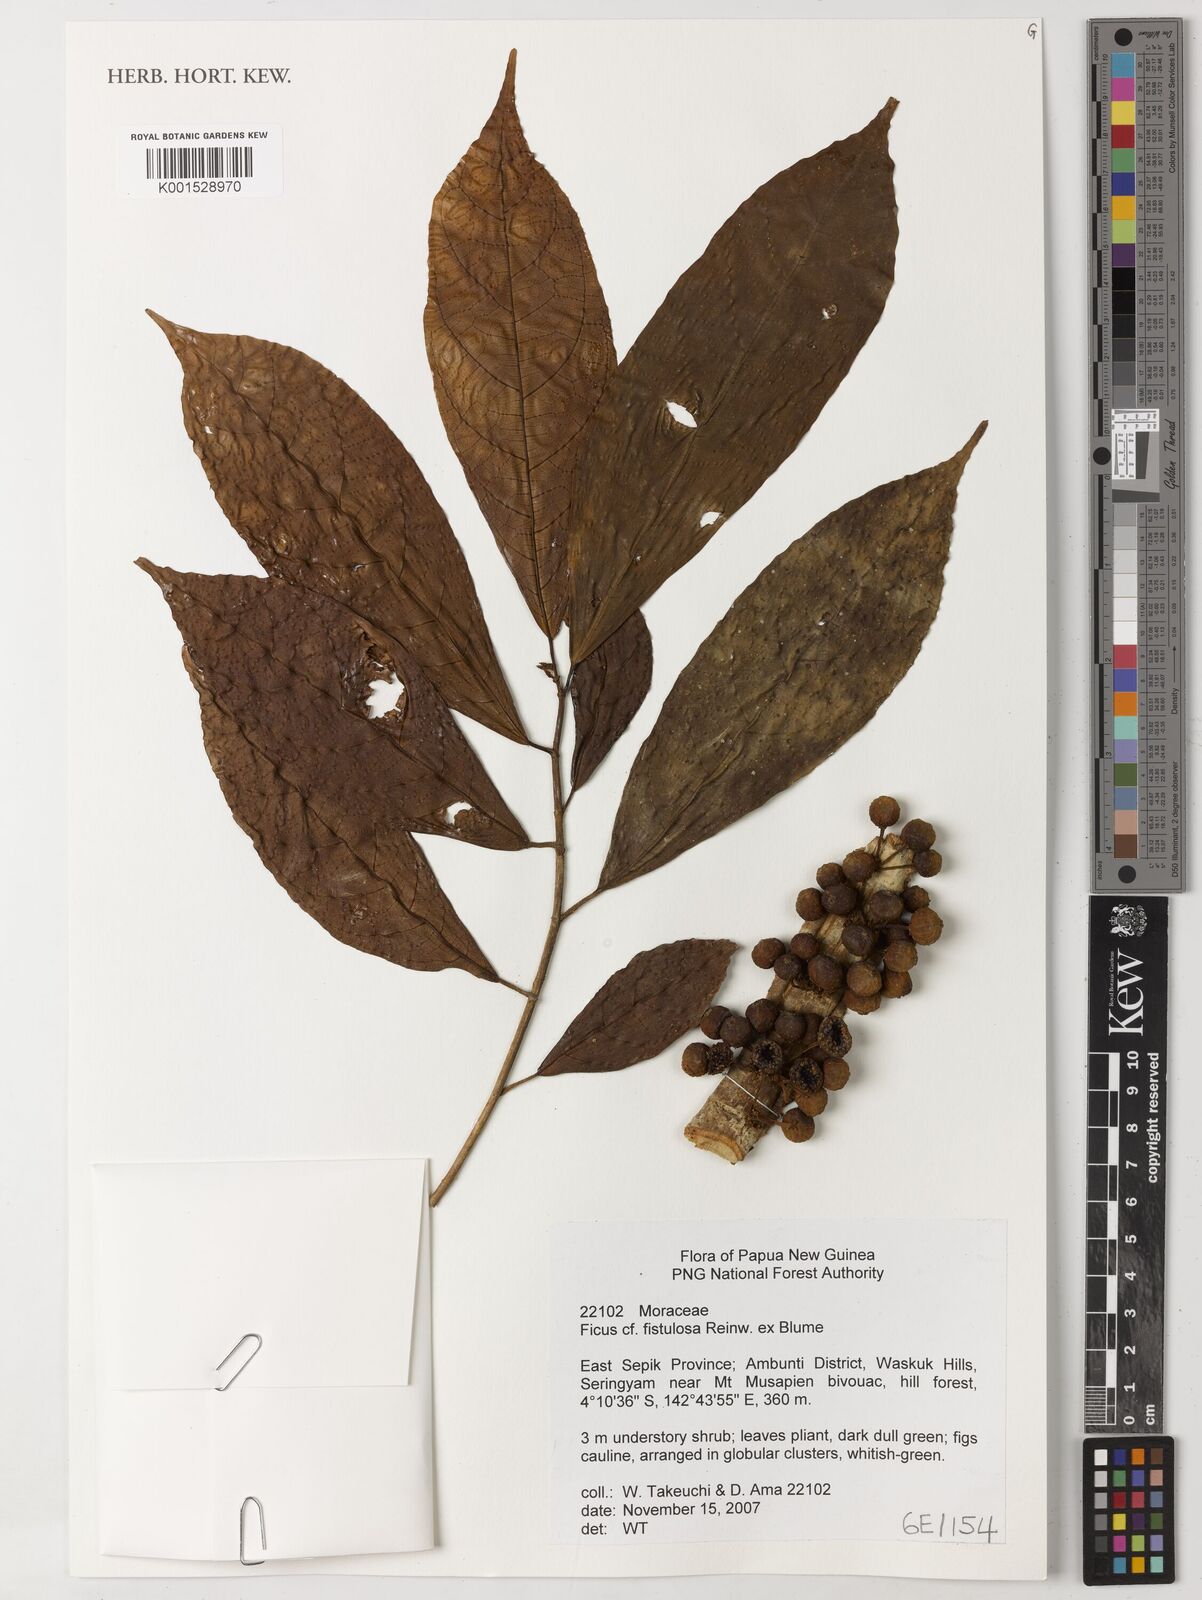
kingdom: Plantae
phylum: Tracheophyta
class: Magnoliopsida
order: Rosales
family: Moraceae
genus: Ficus
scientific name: Ficus fistulosa
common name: Figs
